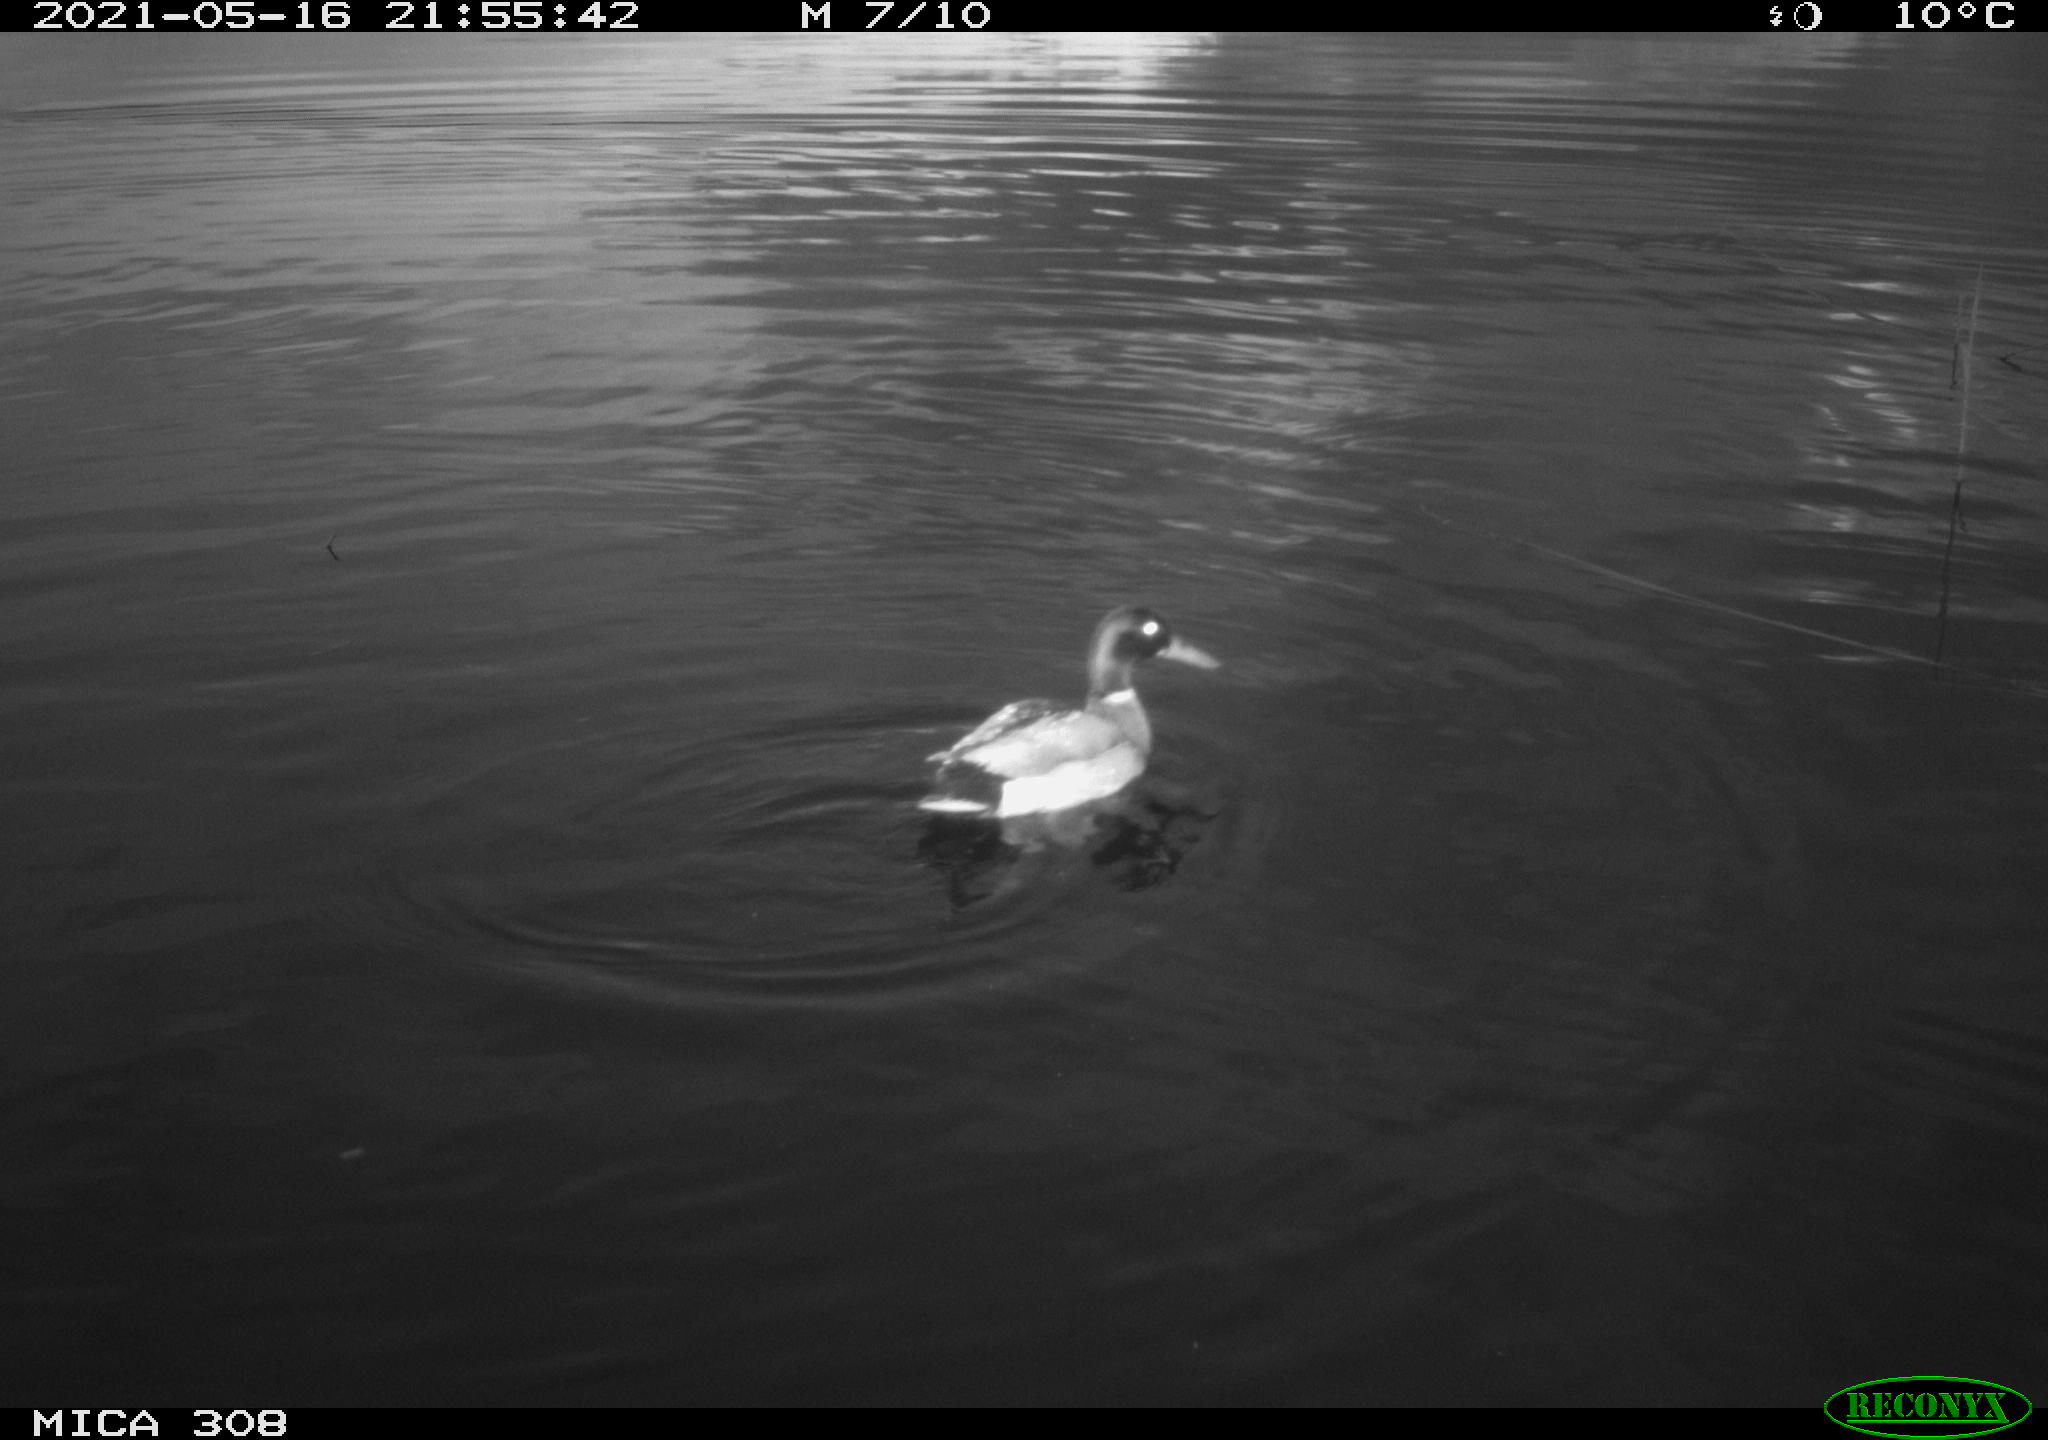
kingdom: Animalia
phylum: Chordata
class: Aves
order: Anseriformes
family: Anatidae
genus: Anas
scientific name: Anas platyrhynchos
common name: Mallard
